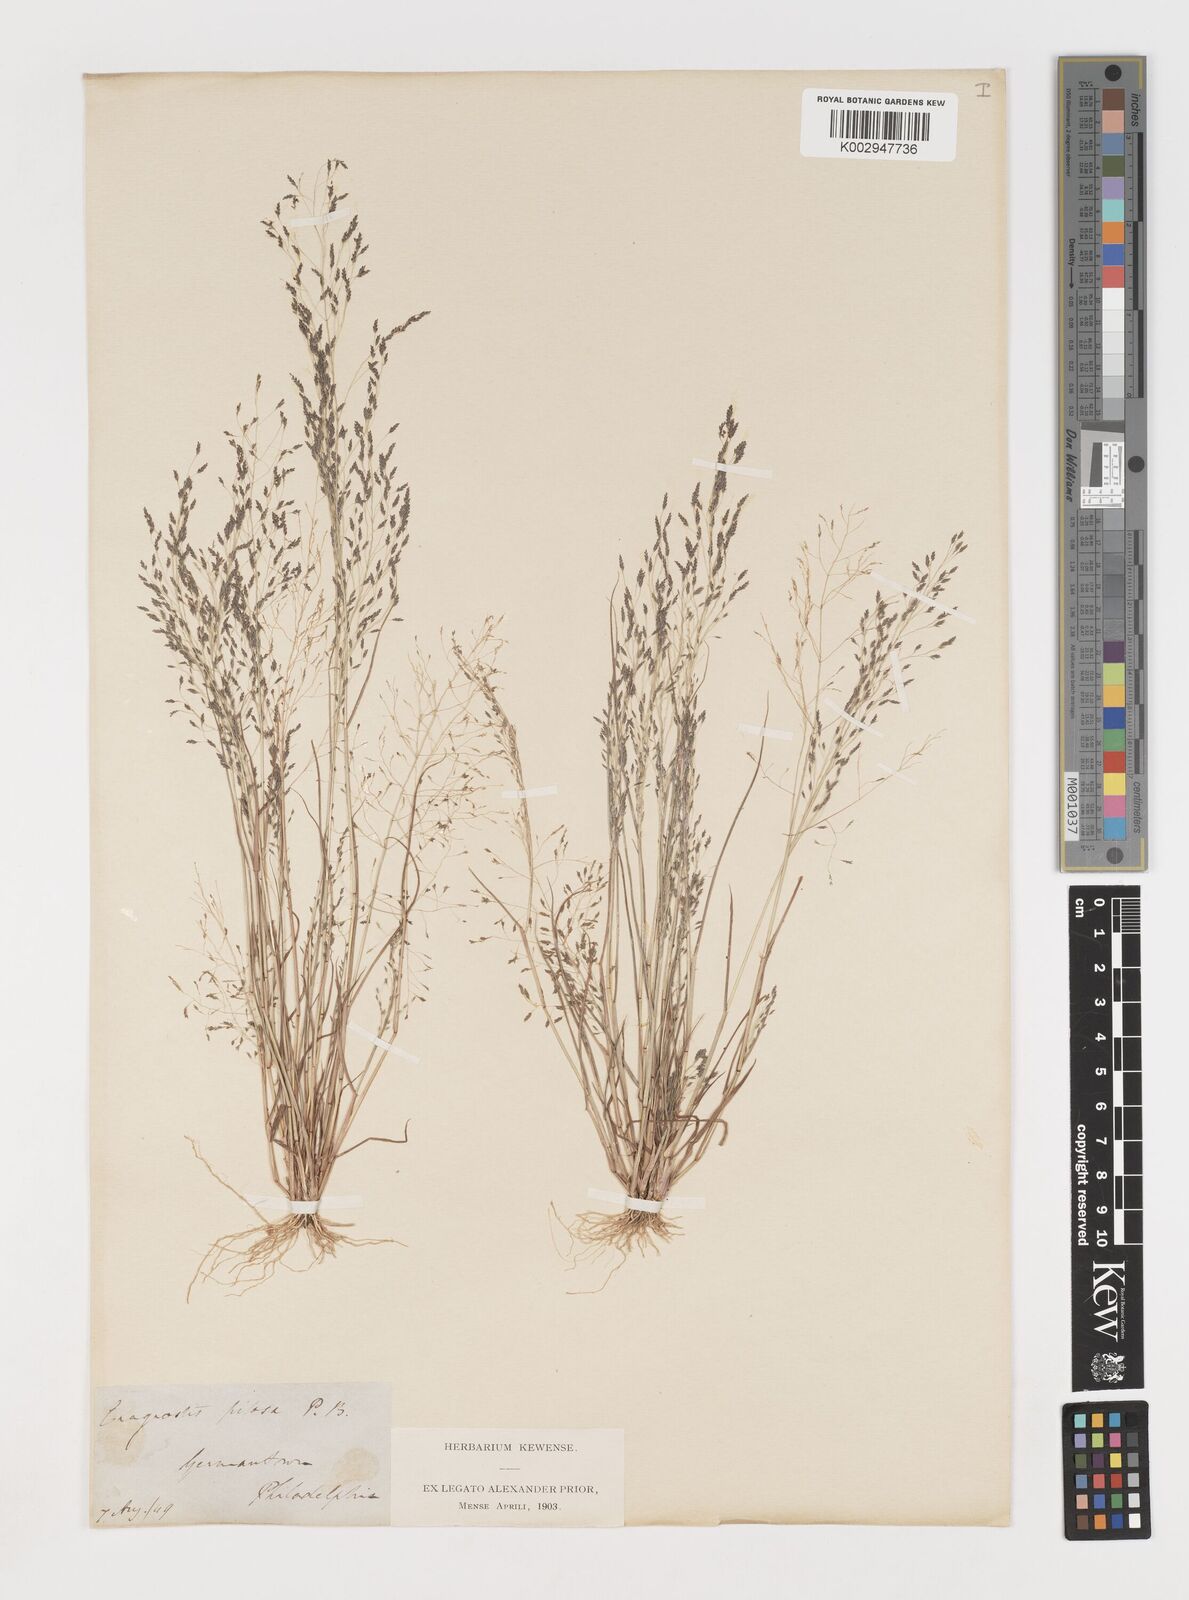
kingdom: Plantae
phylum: Tracheophyta
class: Liliopsida
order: Poales
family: Poaceae
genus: Eragrostis
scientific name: Eragrostis pilosa
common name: Indian lovegrass
